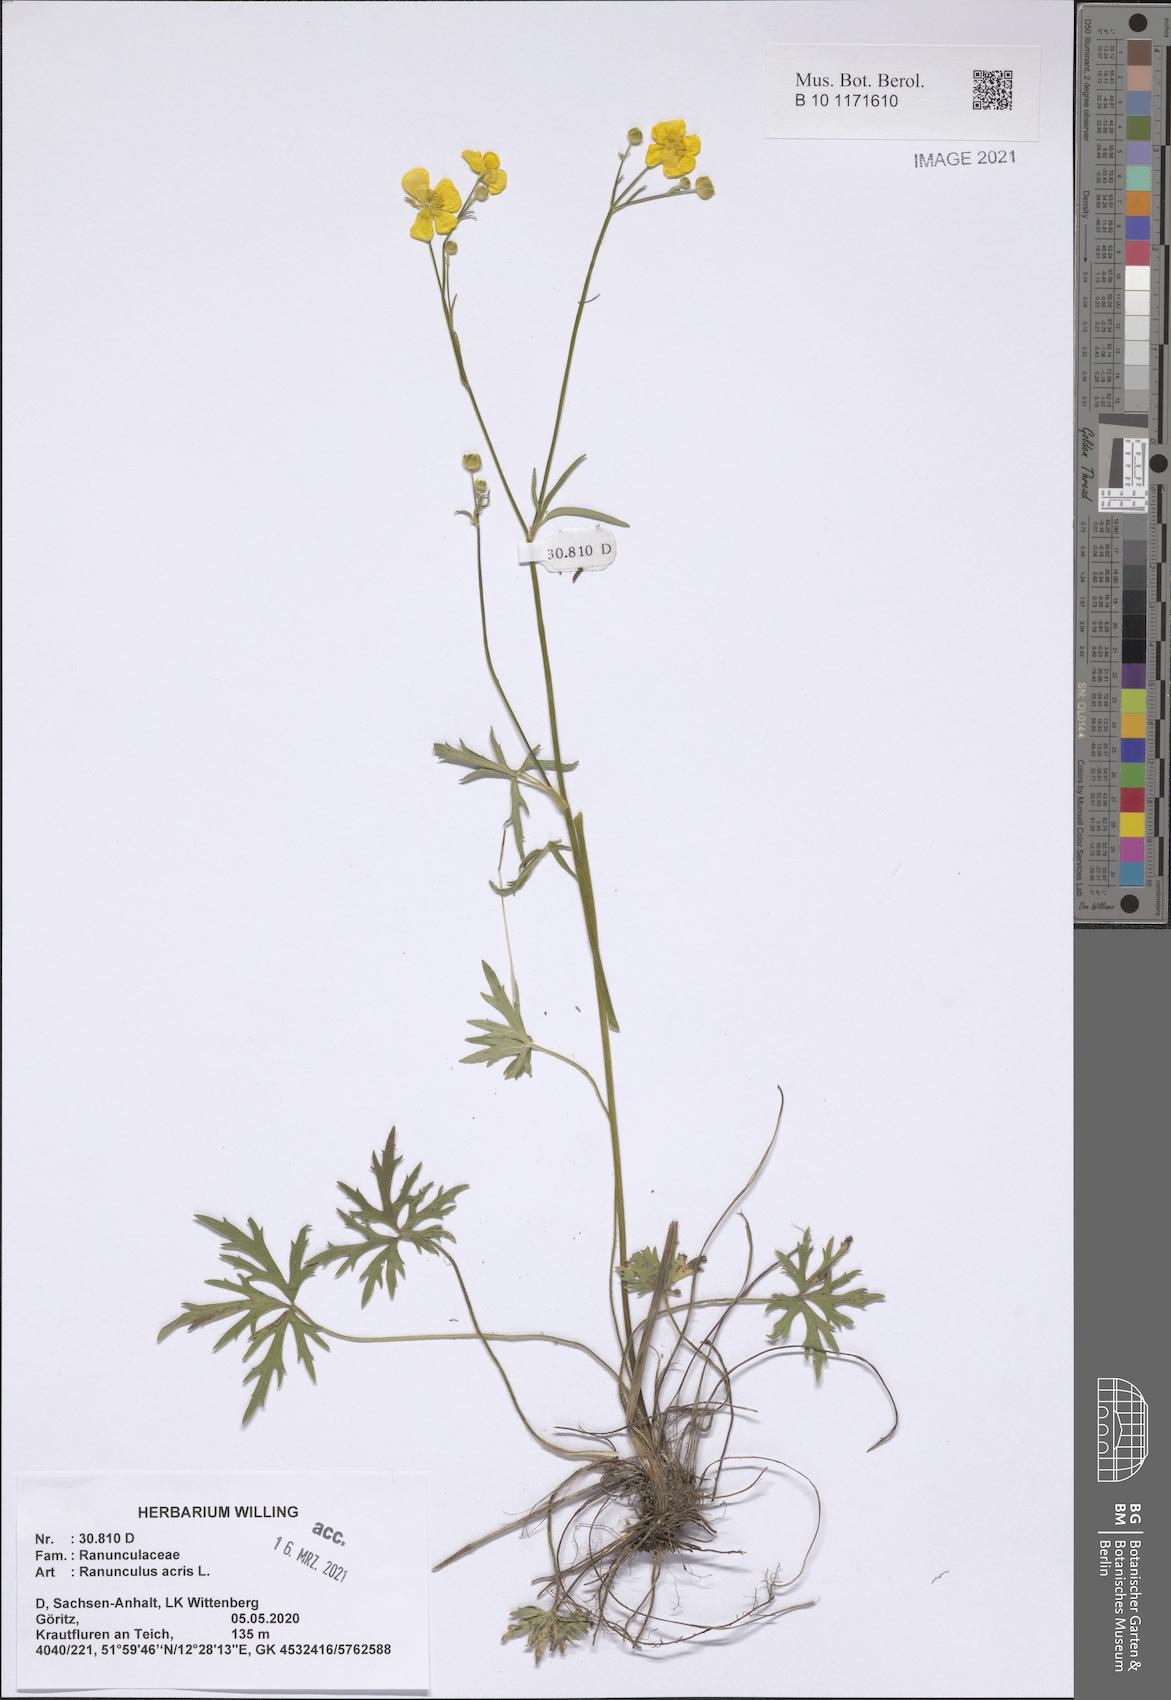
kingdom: Plantae
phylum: Tracheophyta
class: Magnoliopsida
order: Ranunculales
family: Ranunculaceae
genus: Ranunculus
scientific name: Ranunculus acris
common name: Meadow buttercup
